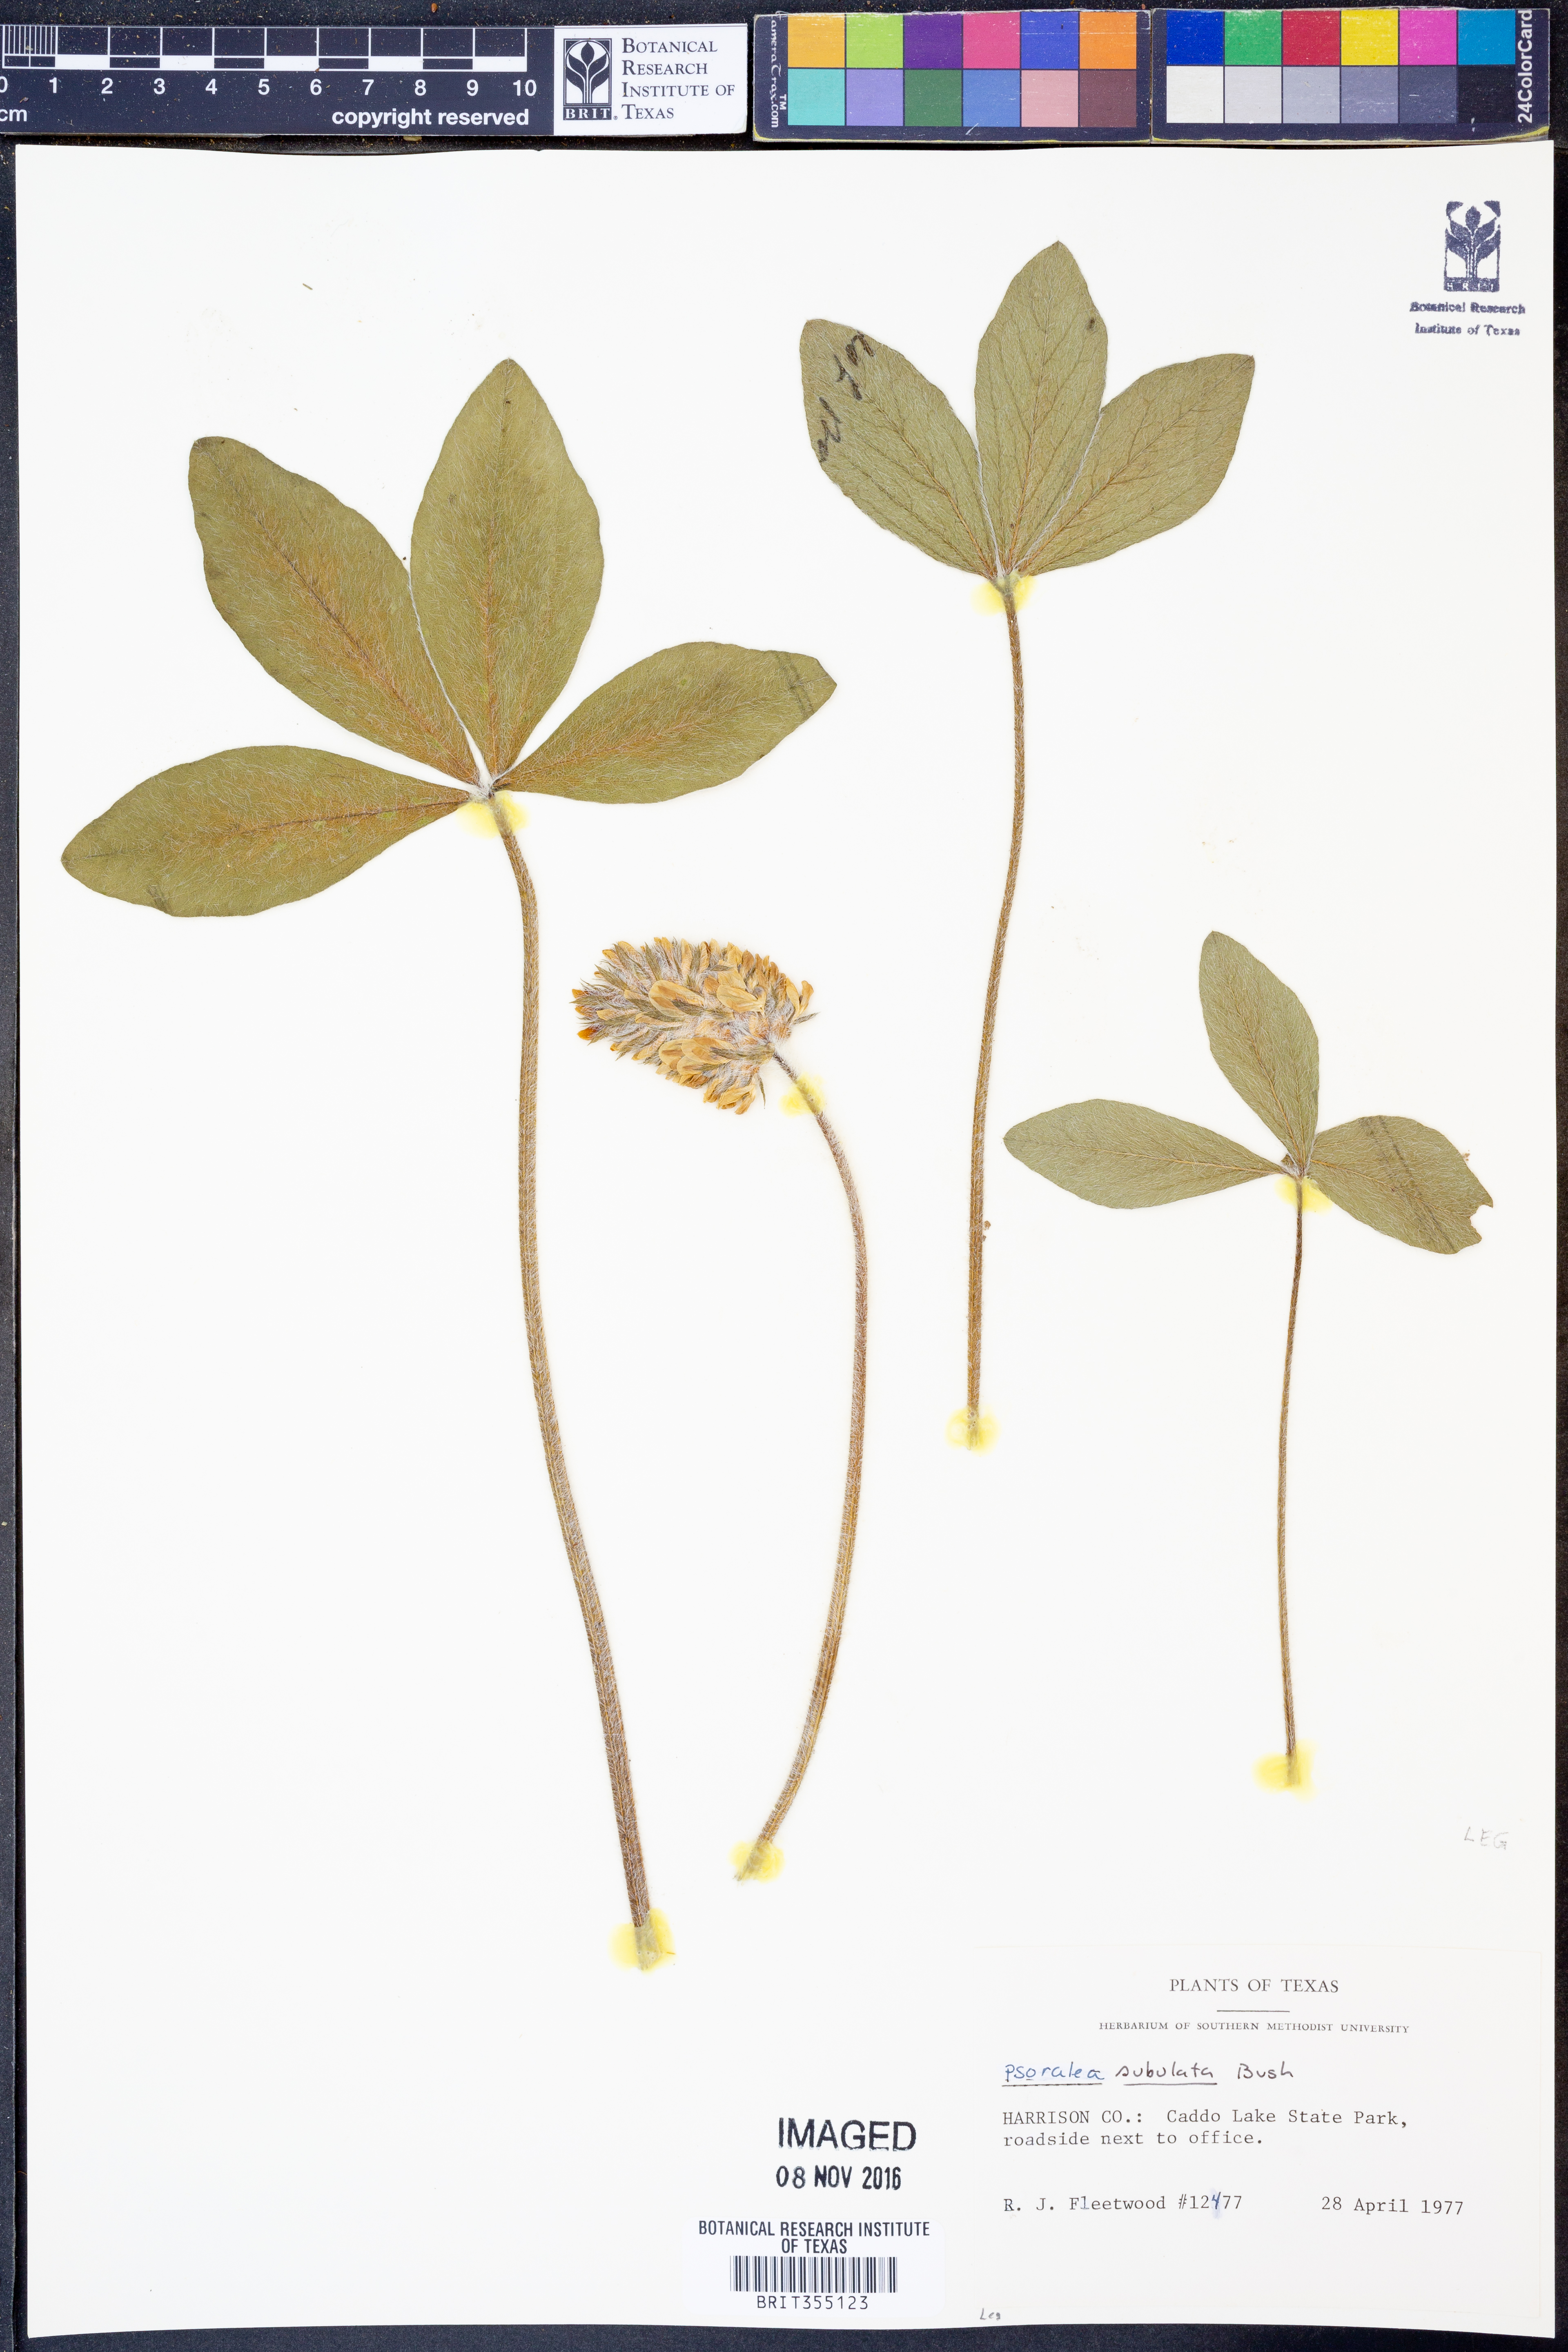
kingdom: Plantae
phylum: Tracheophyta
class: Magnoliopsida
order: Fabales
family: Fabaceae
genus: Pediomelum
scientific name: Pediomelum hypogaeum
